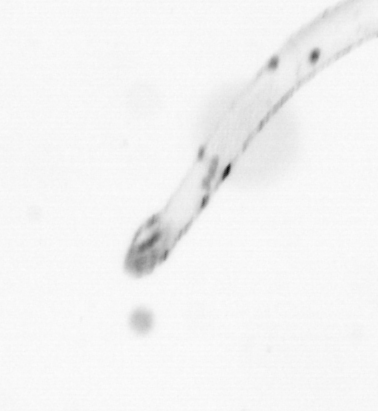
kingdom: Animalia
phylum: Chaetognatha
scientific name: Chaetognatha
